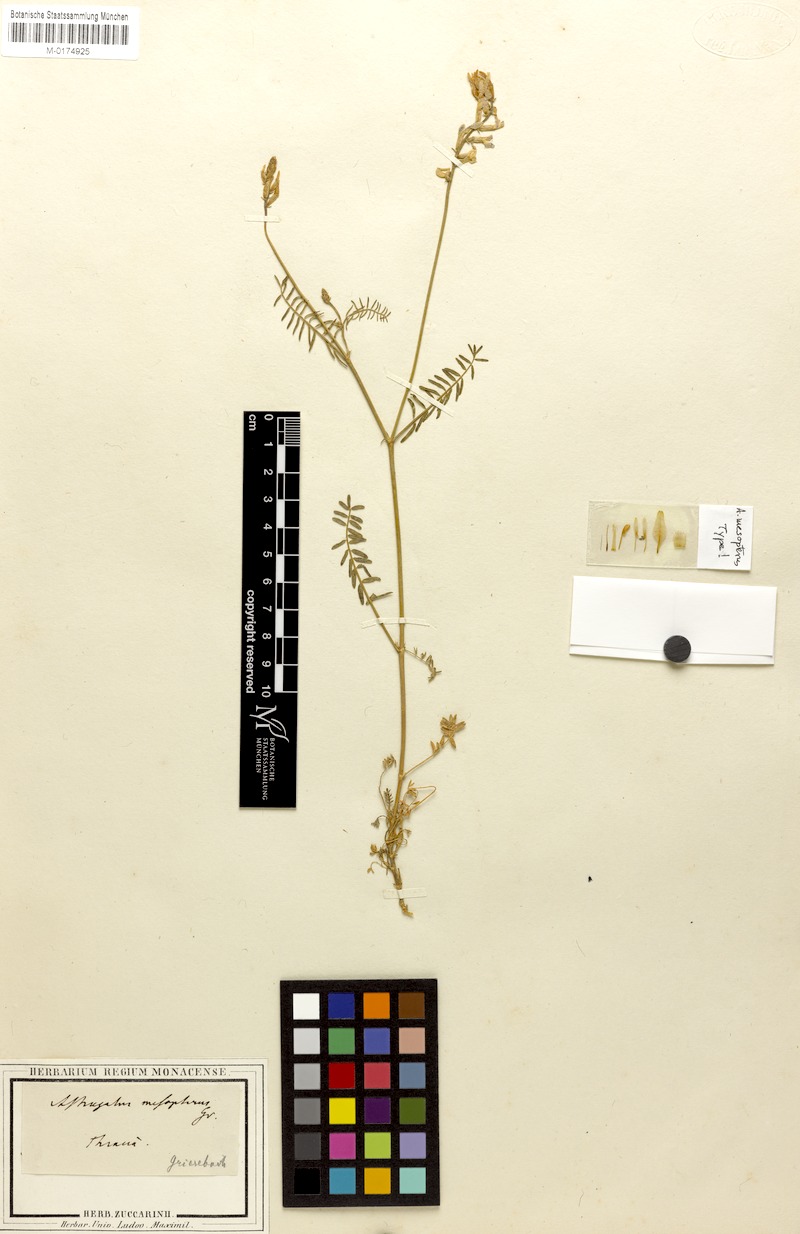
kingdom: Plantae
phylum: Tracheophyta
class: Magnoliopsida
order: Fabales
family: Fabaceae
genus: Astragalus
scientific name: Astragalus mesopterus
